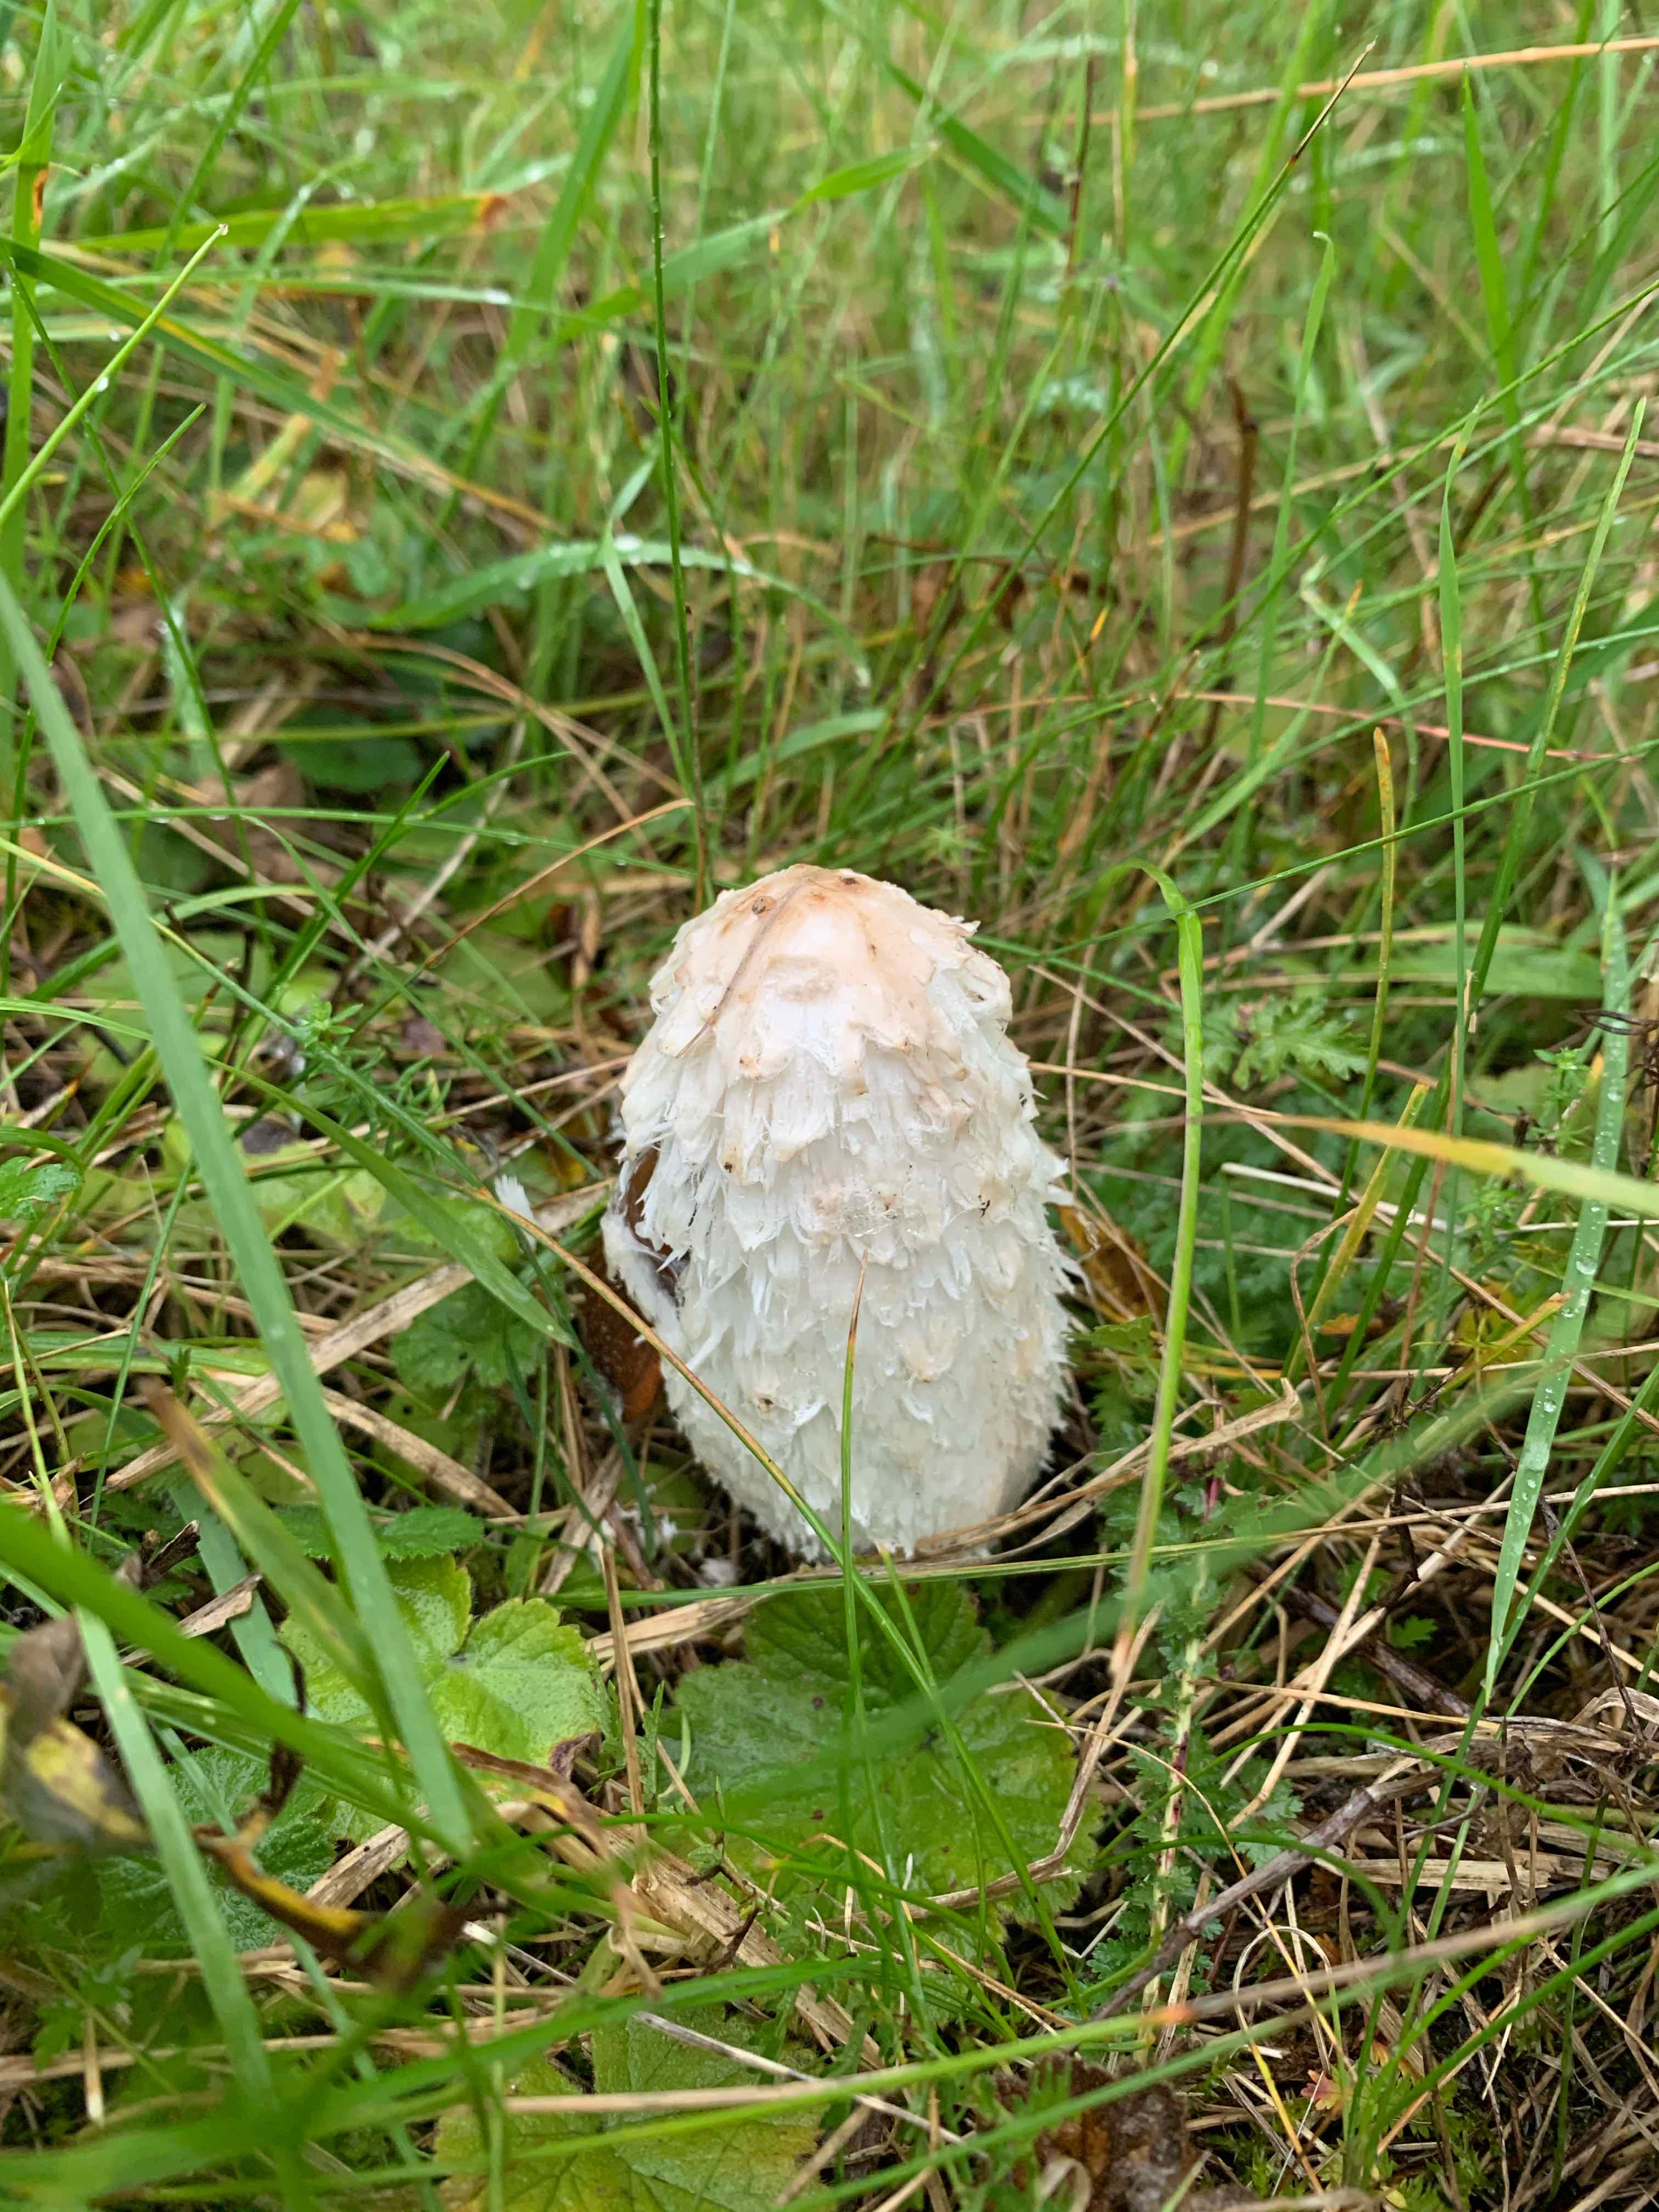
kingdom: Fungi
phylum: Basidiomycota
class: Agaricomycetes
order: Agaricales
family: Agaricaceae
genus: Coprinus
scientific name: Coprinus comatus
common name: stor parykhat
